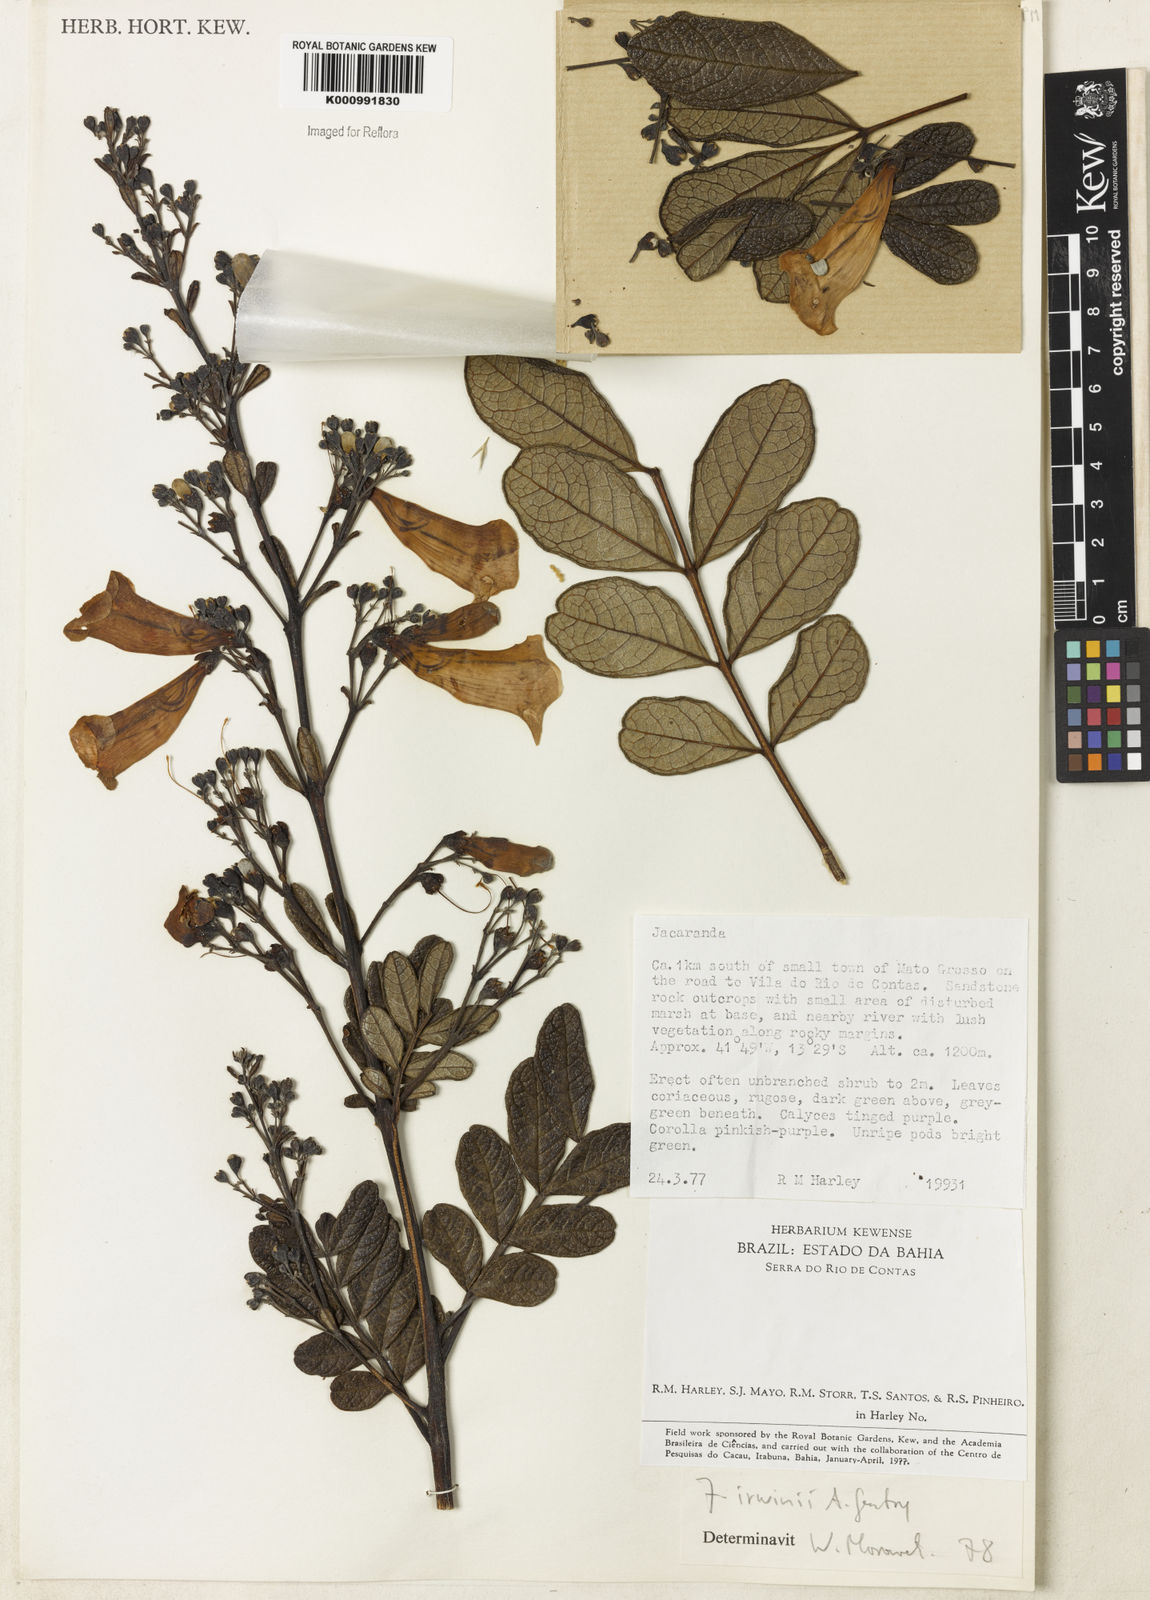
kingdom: Plantae
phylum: Tracheophyta
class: Magnoliopsida
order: Lamiales
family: Bignoniaceae
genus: Jacaranda
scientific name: Jacaranda irwinii
